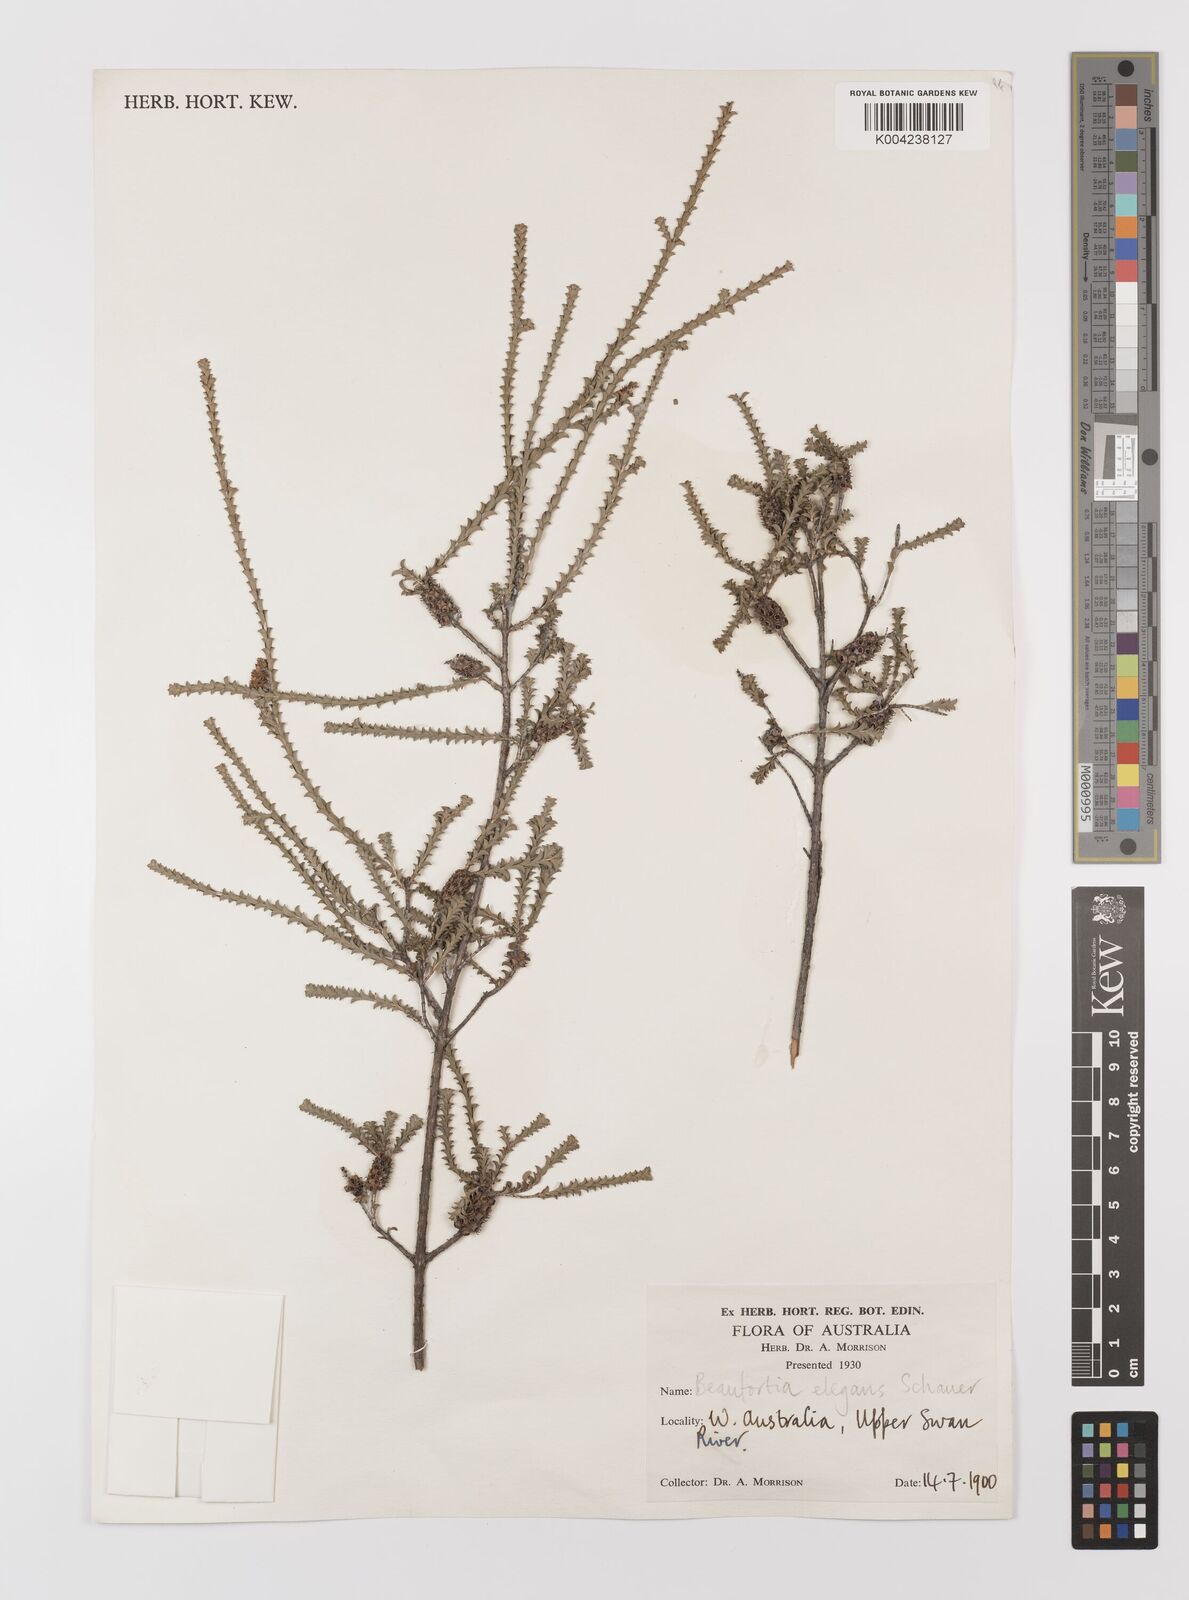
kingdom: Plantae
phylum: Tracheophyta
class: Magnoliopsida
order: Myrtales
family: Myrtaceae
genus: Melaleuca
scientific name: Melaleuca scitula
